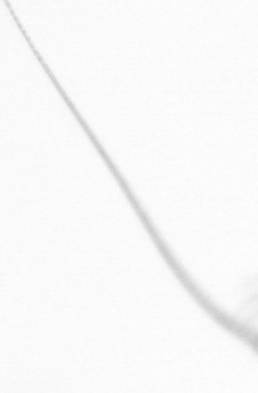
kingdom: Chromista
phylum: Ochrophyta
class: Bacillariophyceae
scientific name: Bacillariophyceae
